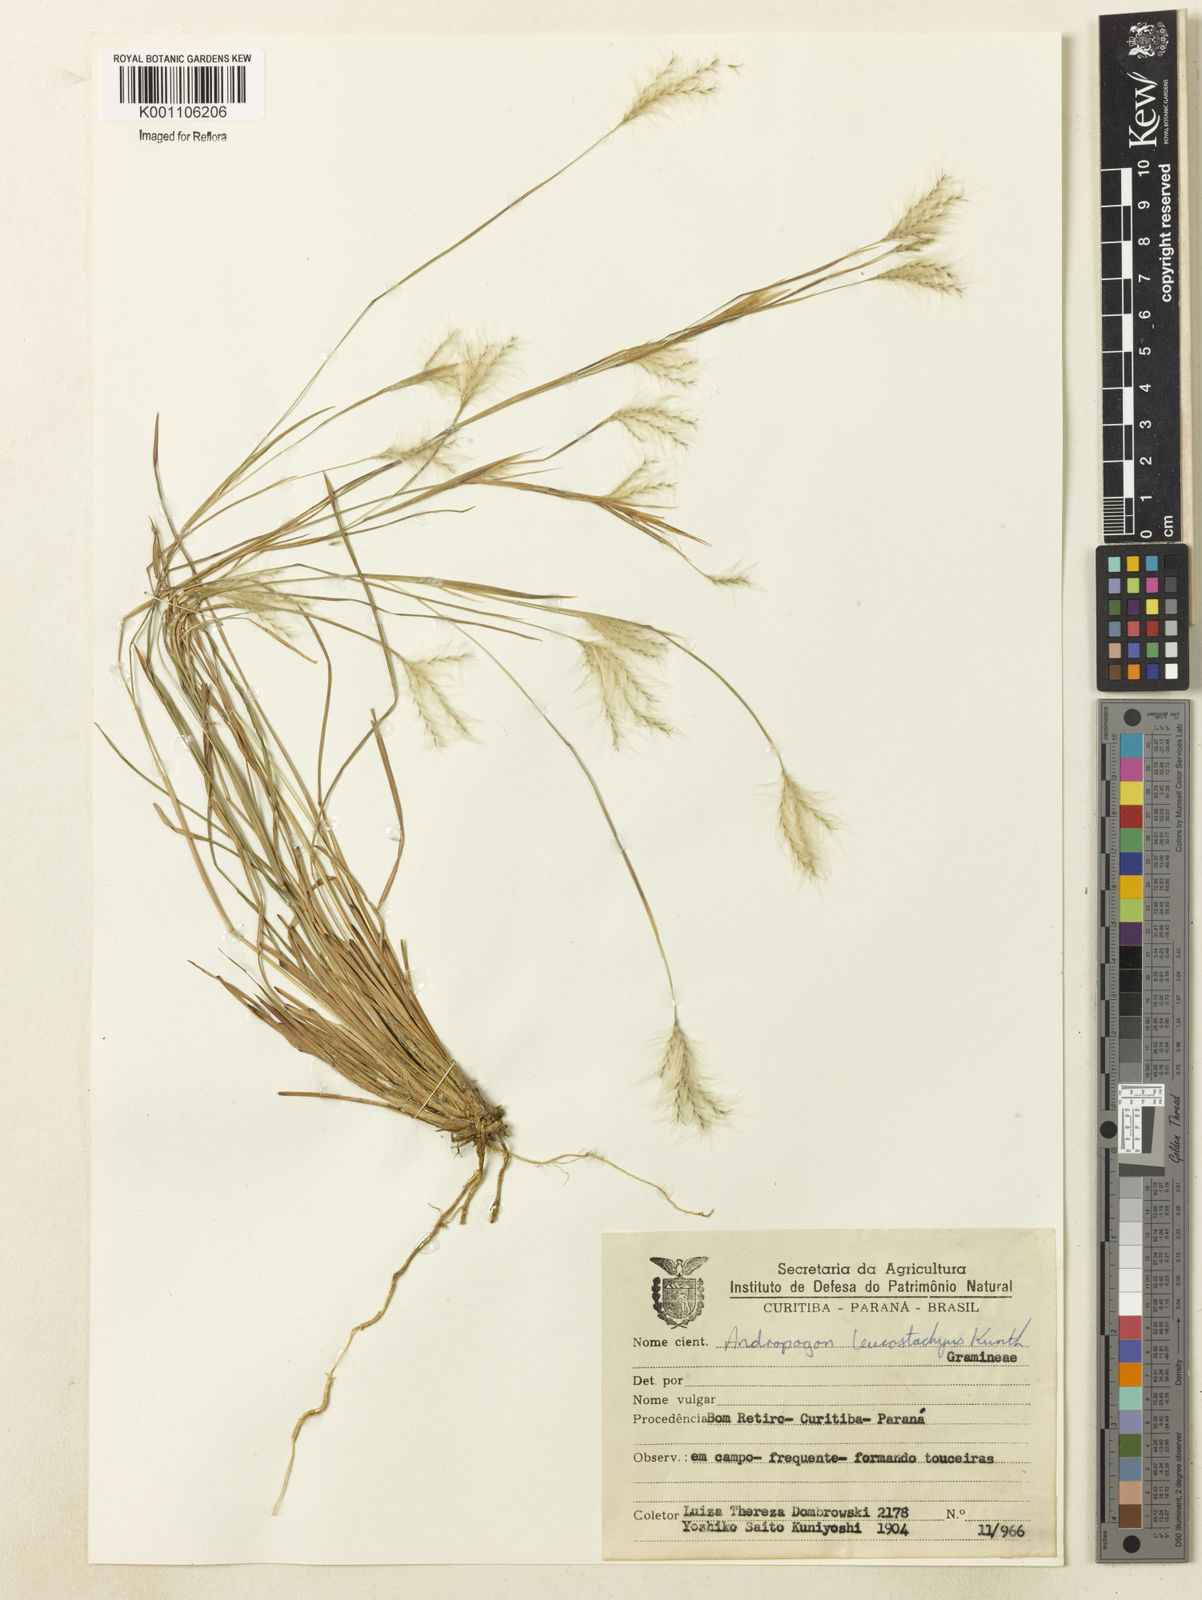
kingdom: Plantae
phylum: Tracheophyta
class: Liliopsida
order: Poales
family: Poaceae
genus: Andropogon
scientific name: Andropogon leucostachyus
